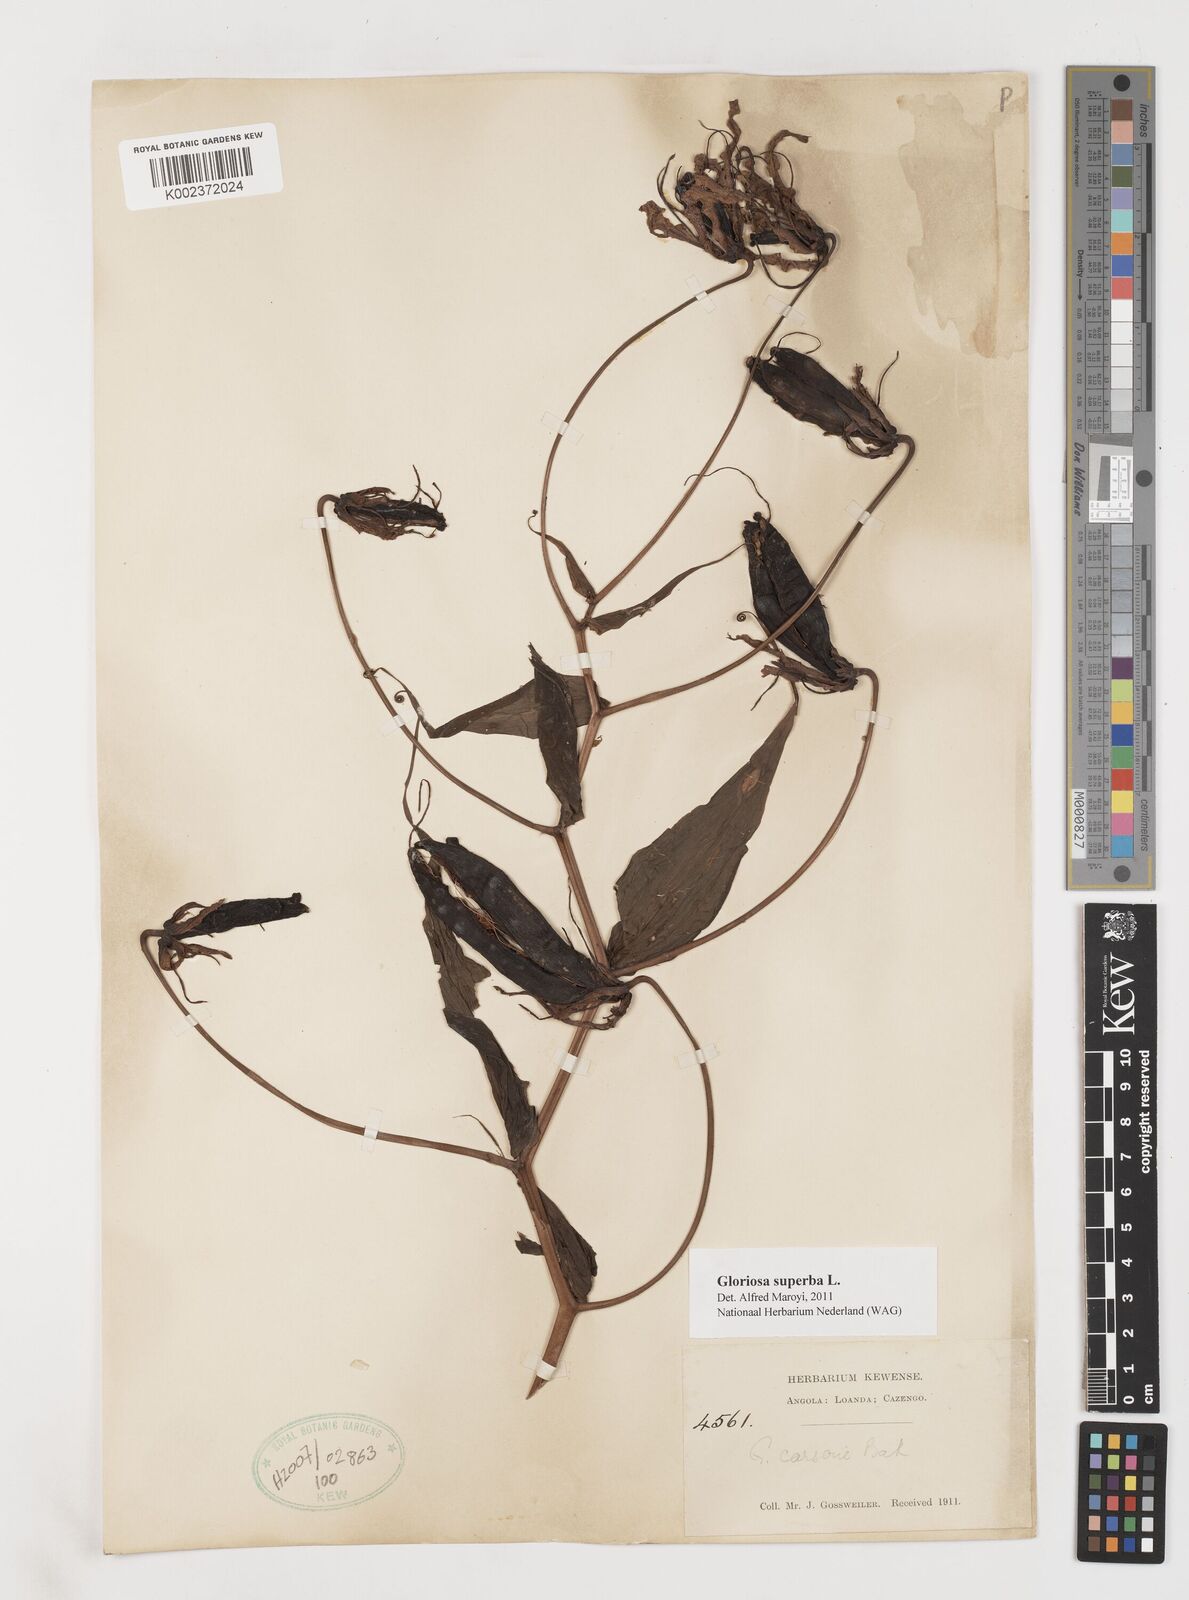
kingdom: Plantae
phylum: Tracheophyta
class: Liliopsida
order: Liliales
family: Colchicaceae
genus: Gloriosa
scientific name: Gloriosa superba
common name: Flame lily
